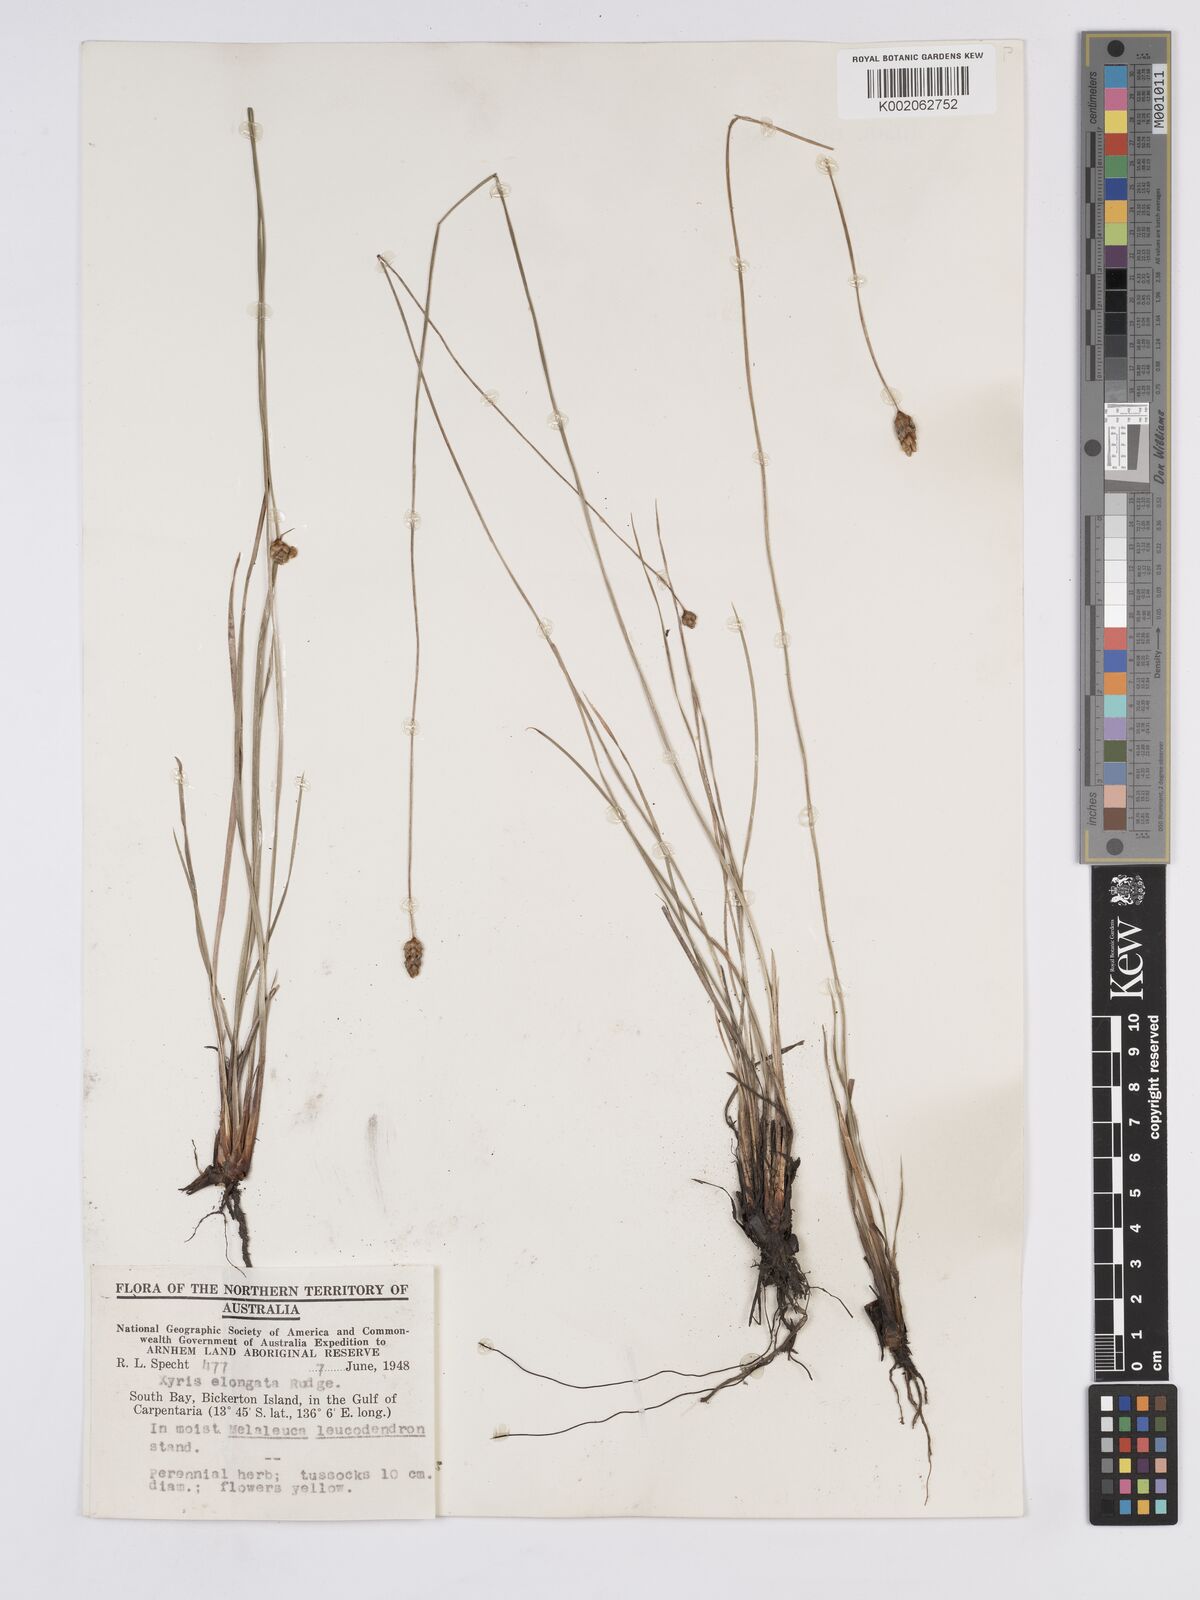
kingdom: Plantae
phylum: Tracheophyta
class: Liliopsida
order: Poales
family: Xyridaceae
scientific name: Xyridaceae
